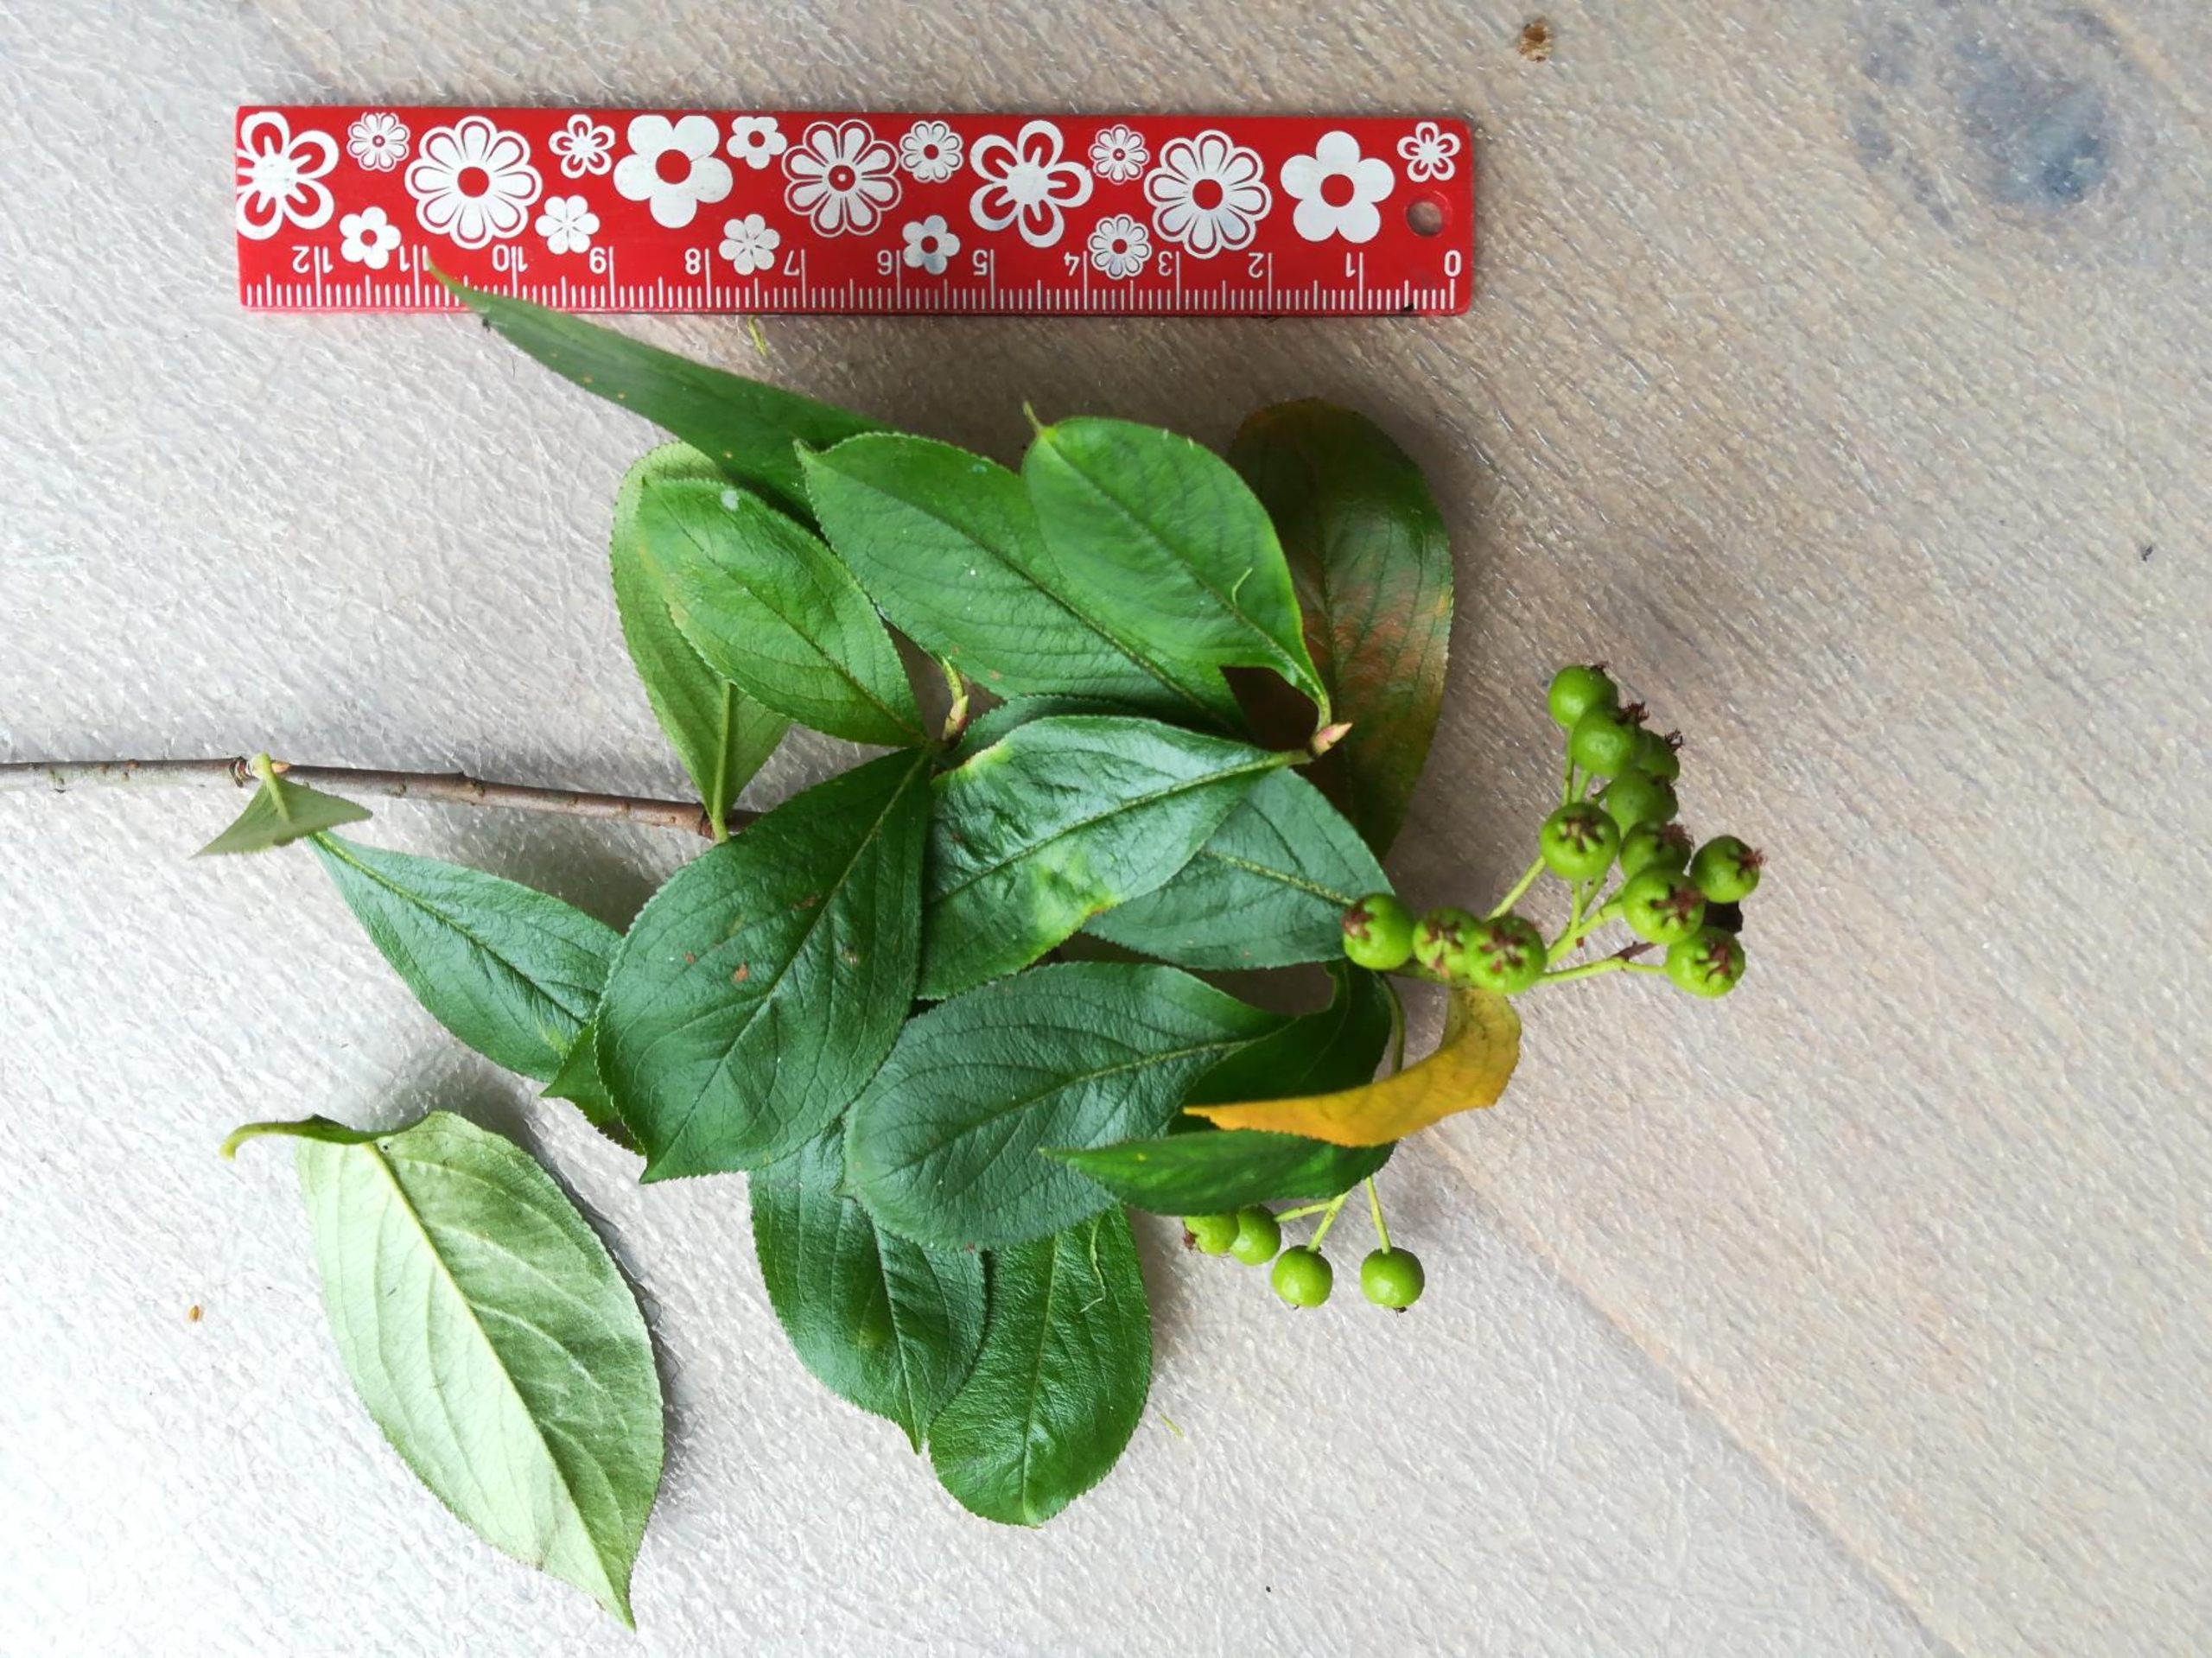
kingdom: Plantae
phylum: Tracheophyta
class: Magnoliopsida
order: Rosales
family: Rosaceae
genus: Aronia
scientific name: Aronia arbutifolia
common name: Rødfrugtet surbær
